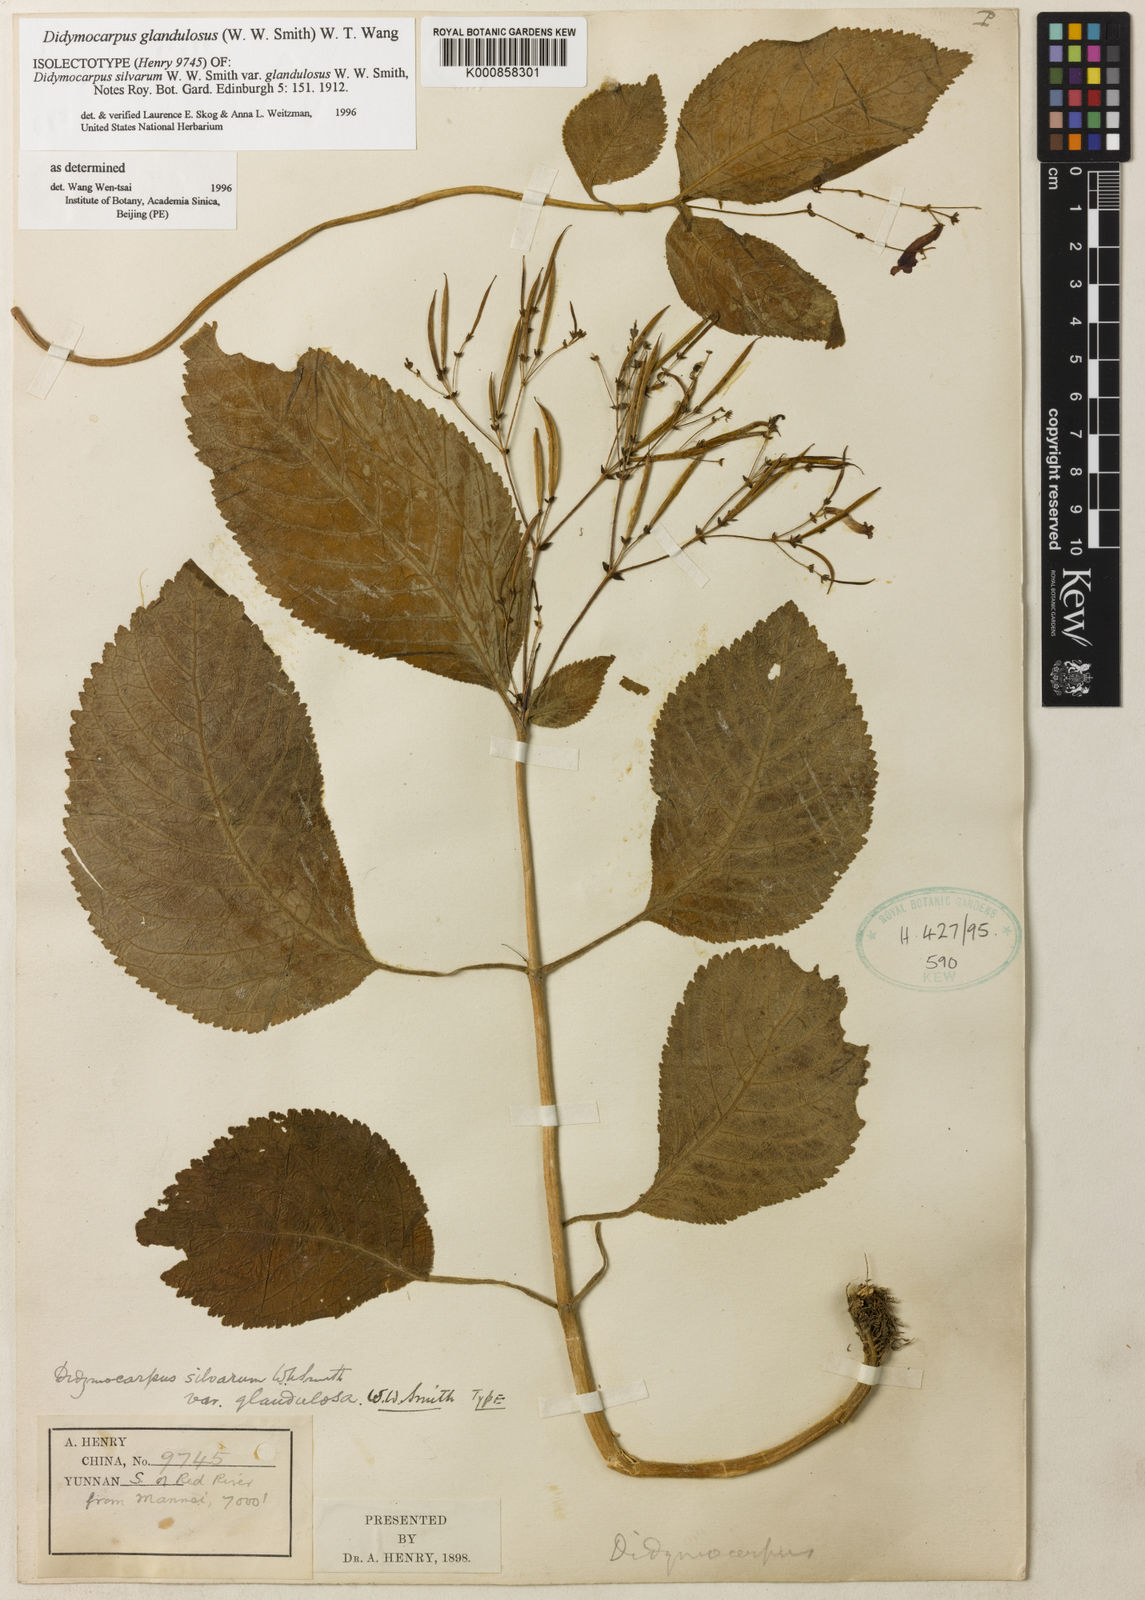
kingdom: Plantae
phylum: Tracheophyta
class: Magnoliopsida
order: Lamiales
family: Gesneriaceae
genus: Didymocarpus
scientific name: Didymocarpus silvarum
